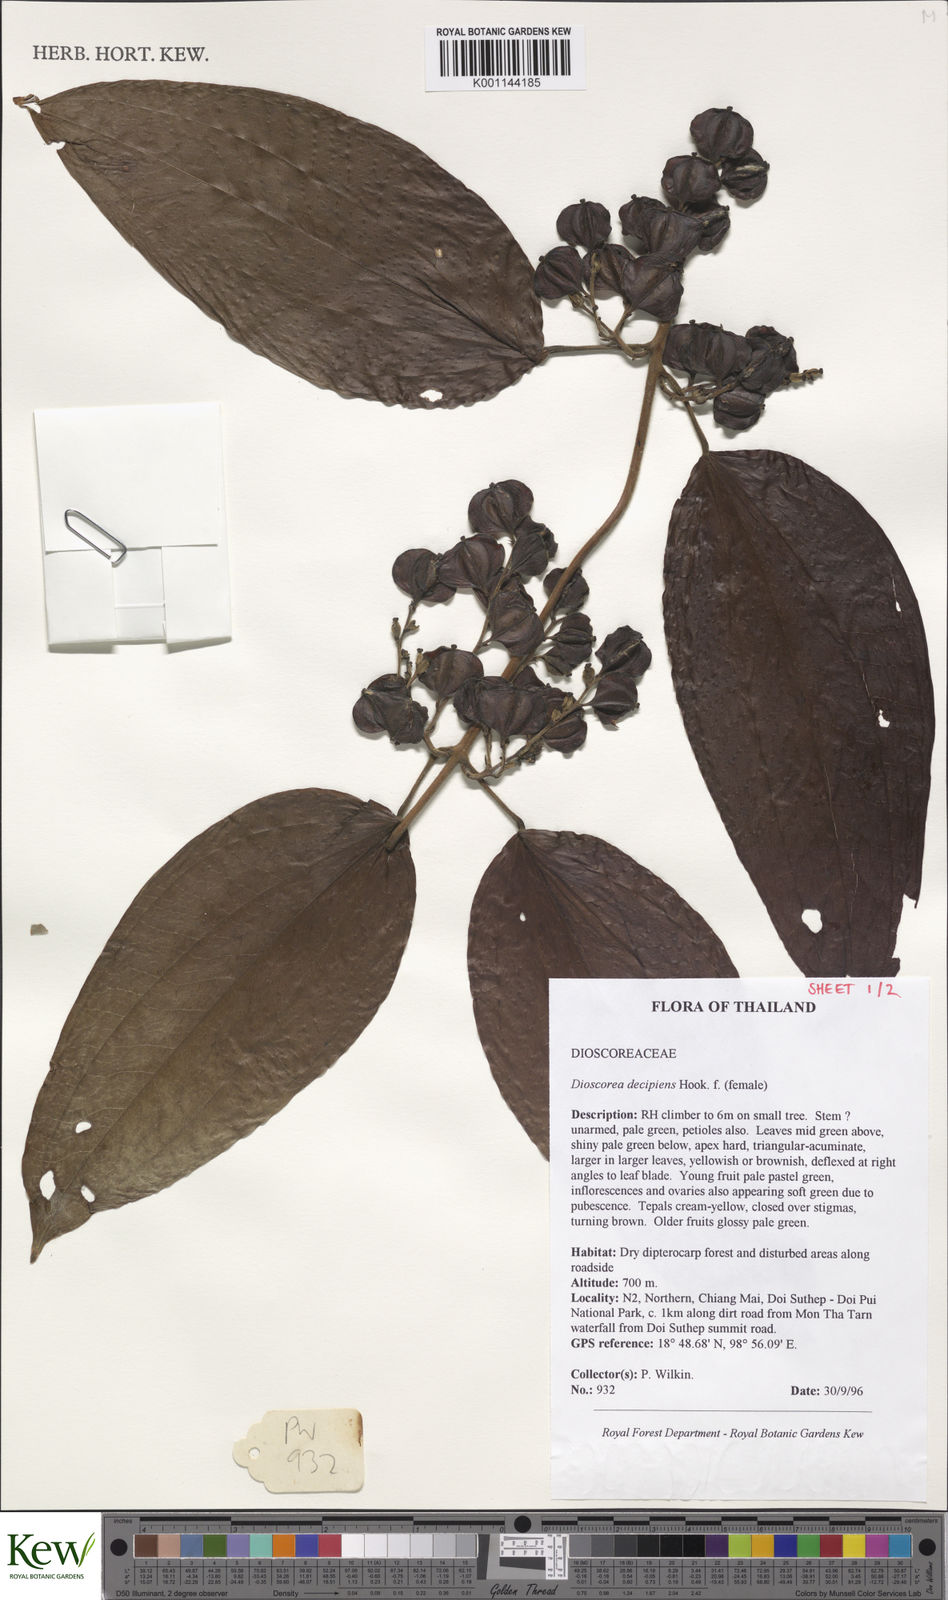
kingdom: Plantae
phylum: Tracheophyta
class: Liliopsida
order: Dioscoreales
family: Dioscoreaceae
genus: Dioscorea
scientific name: Dioscorea decipiens
